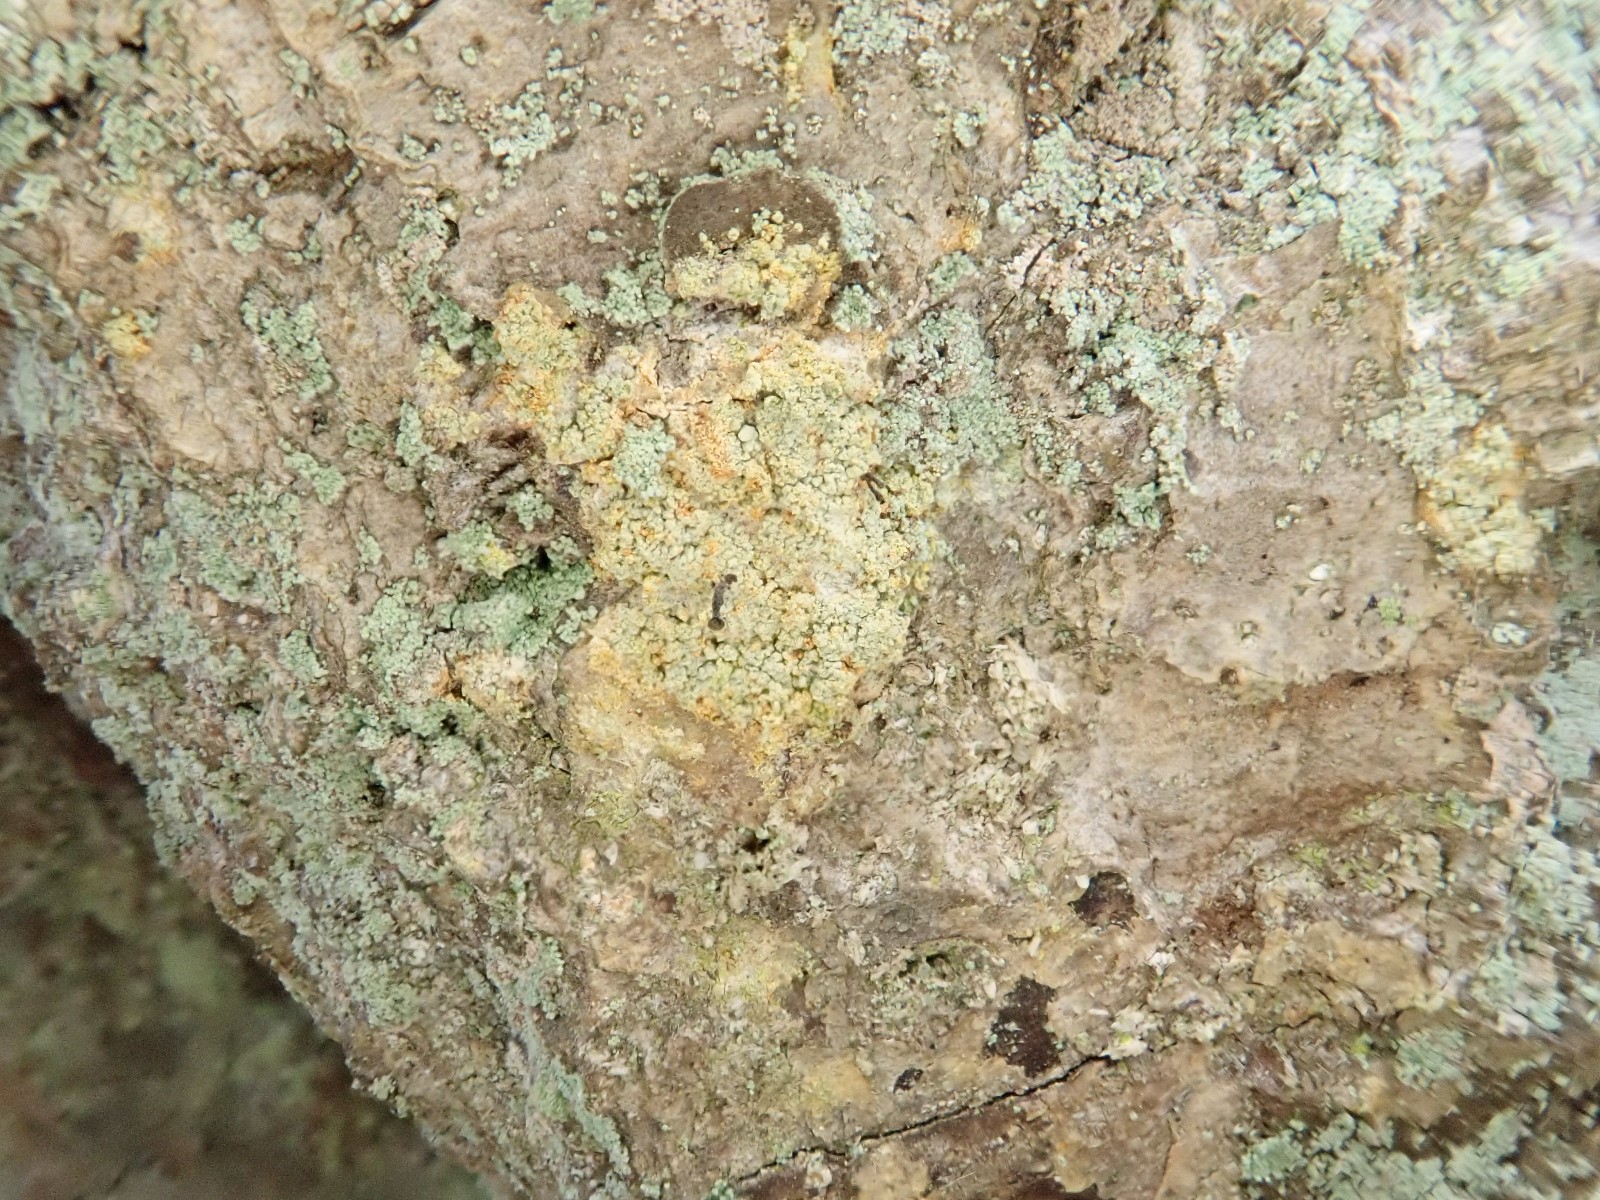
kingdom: Fungi
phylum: Ascomycota
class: Coniocybomycetes
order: Coniocybales
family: Coniocybaceae
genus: Chaenotheca
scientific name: Chaenotheca ferruginea
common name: rustbrun knappenålslav
